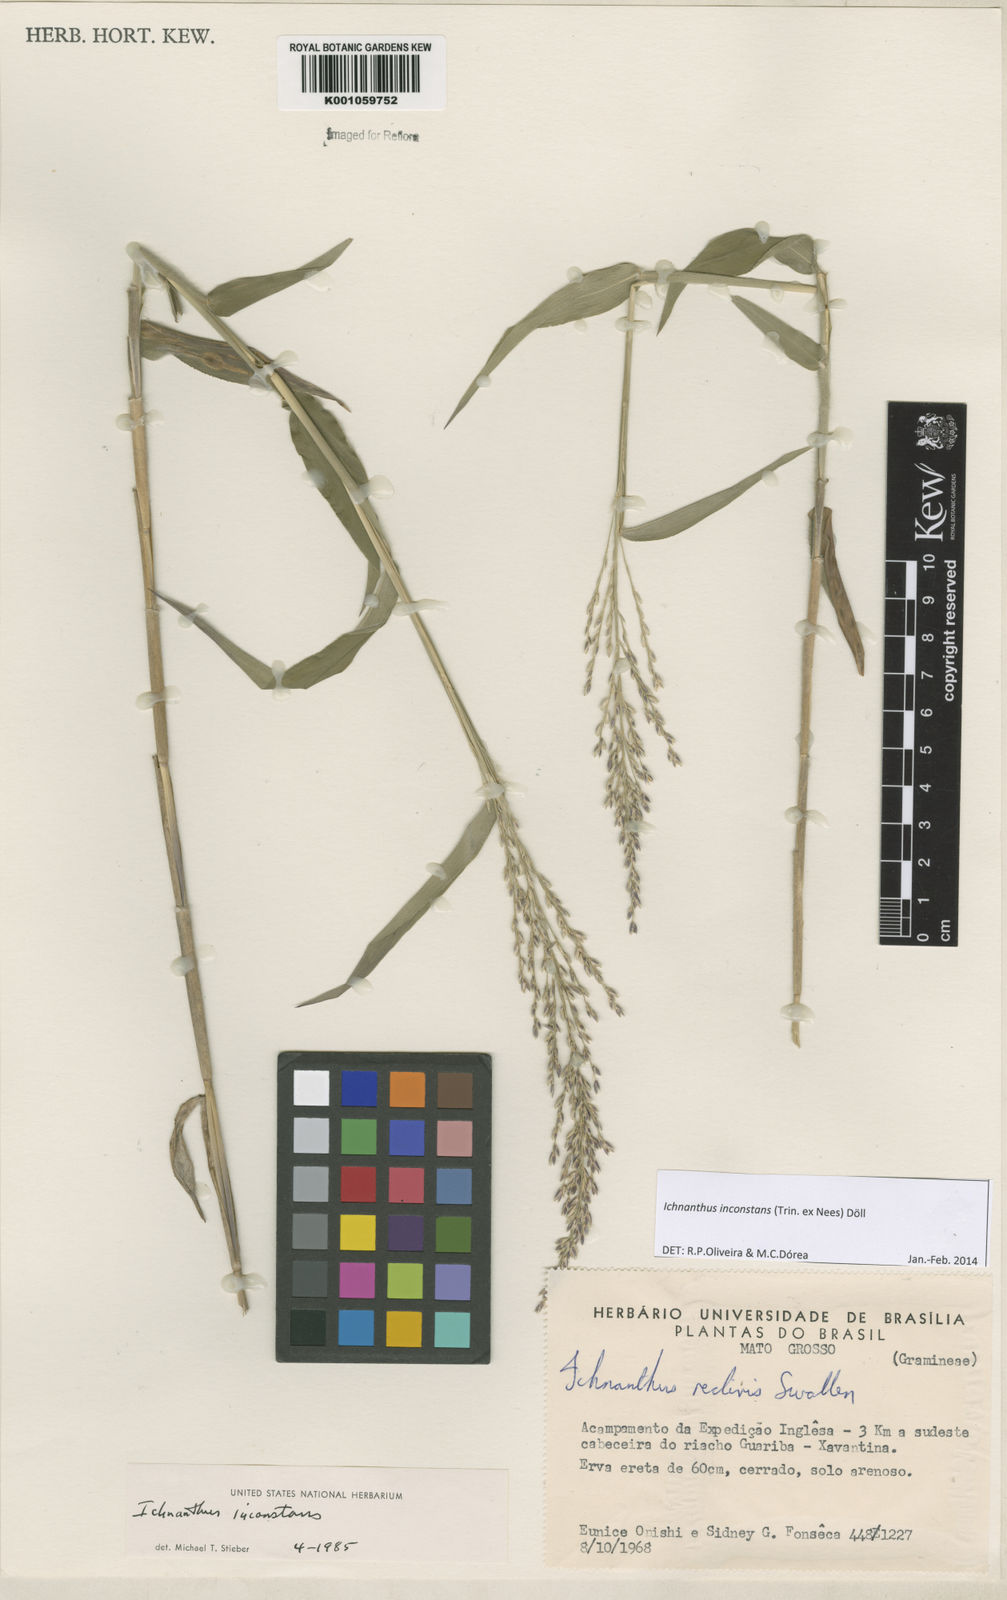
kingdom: Plantae
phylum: Tracheophyta
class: Liliopsida
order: Poales
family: Poaceae
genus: Ichnanthus
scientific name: Ichnanthus
